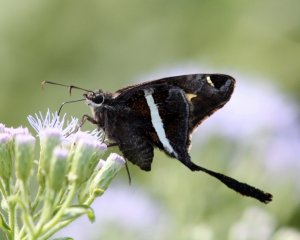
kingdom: Animalia
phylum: Arthropoda
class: Insecta
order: Lepidoptera
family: Hesperiidae
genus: Chioides
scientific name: Chioides catillus
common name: White-striped Longtail
